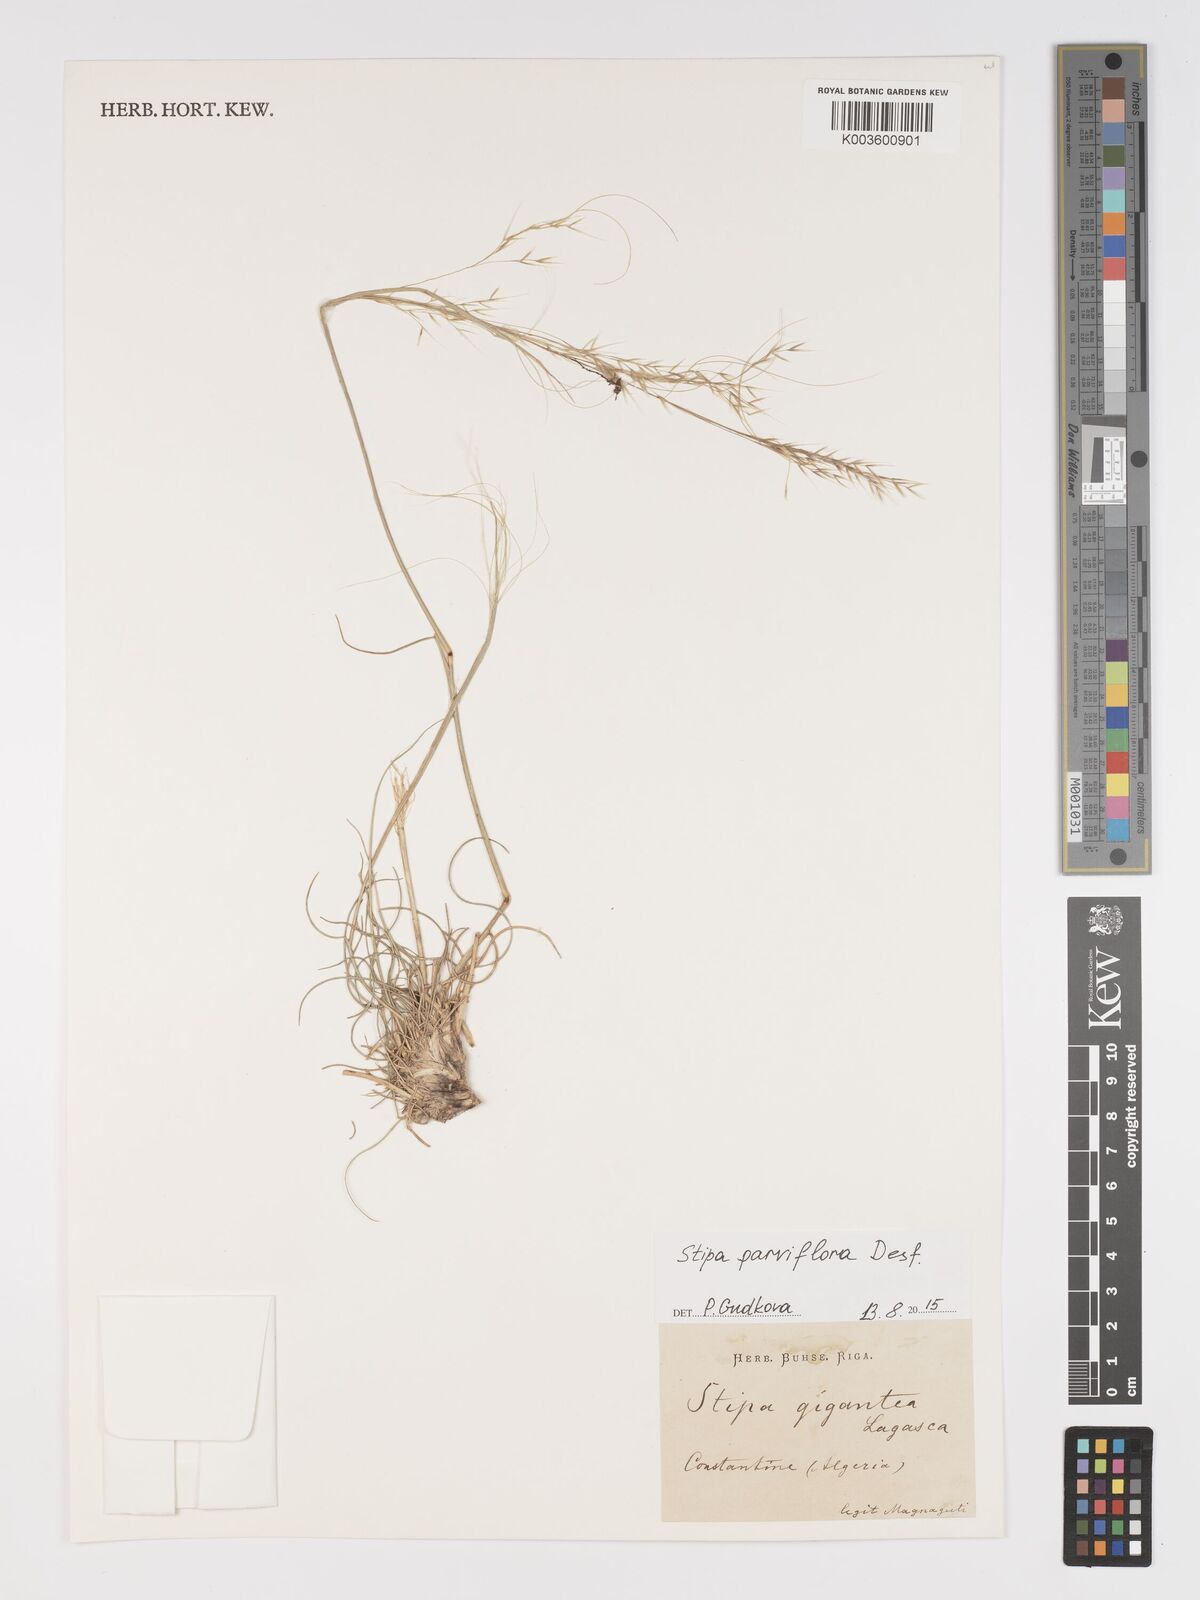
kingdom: Plantae
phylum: Tracheophyta
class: Liliopsida
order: Poales
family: Poaceae
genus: Achnatherum
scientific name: Achnatherum parviflorum
